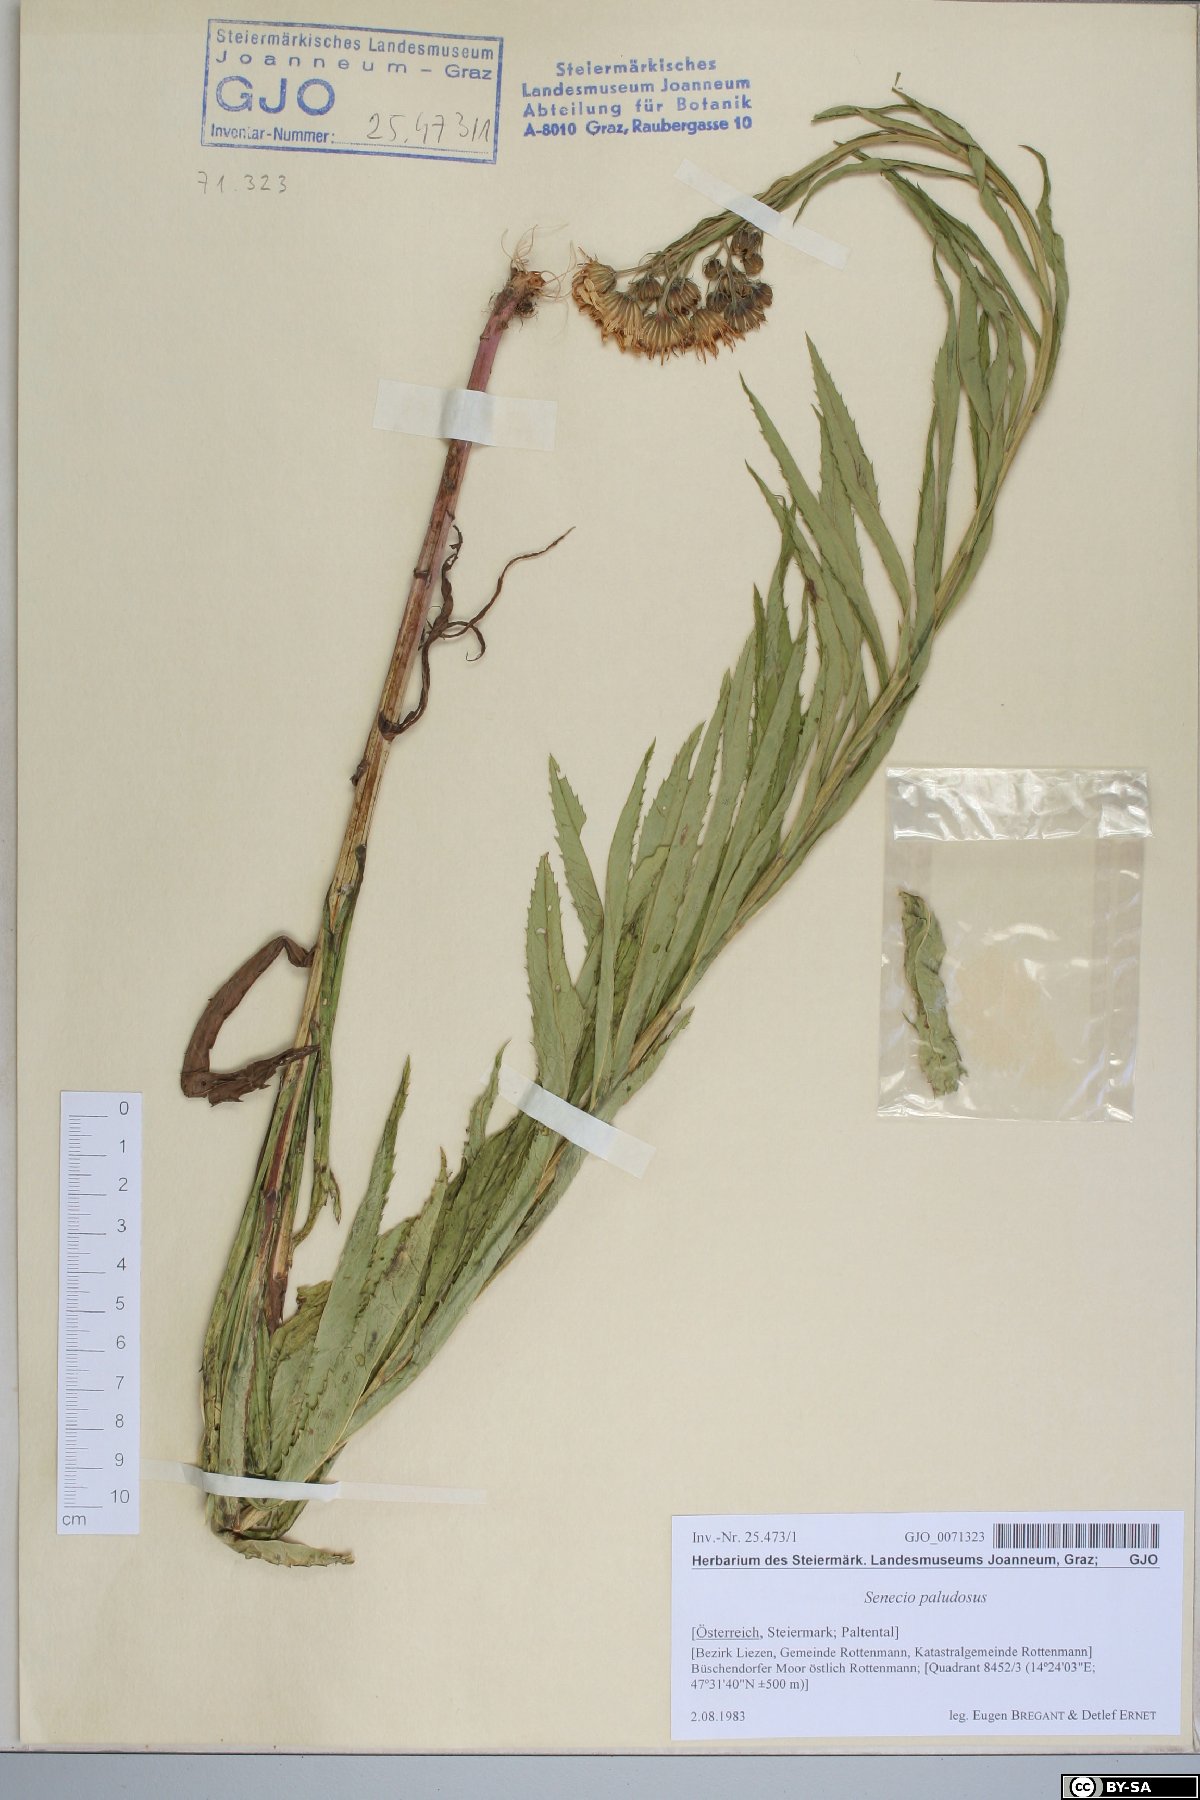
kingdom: Plantae
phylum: Tracheophyta
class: Magnoliopsida
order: Asterales
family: Asteraceae
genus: Jacobaea
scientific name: Jacobaea paludosa
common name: Fen ragwort
